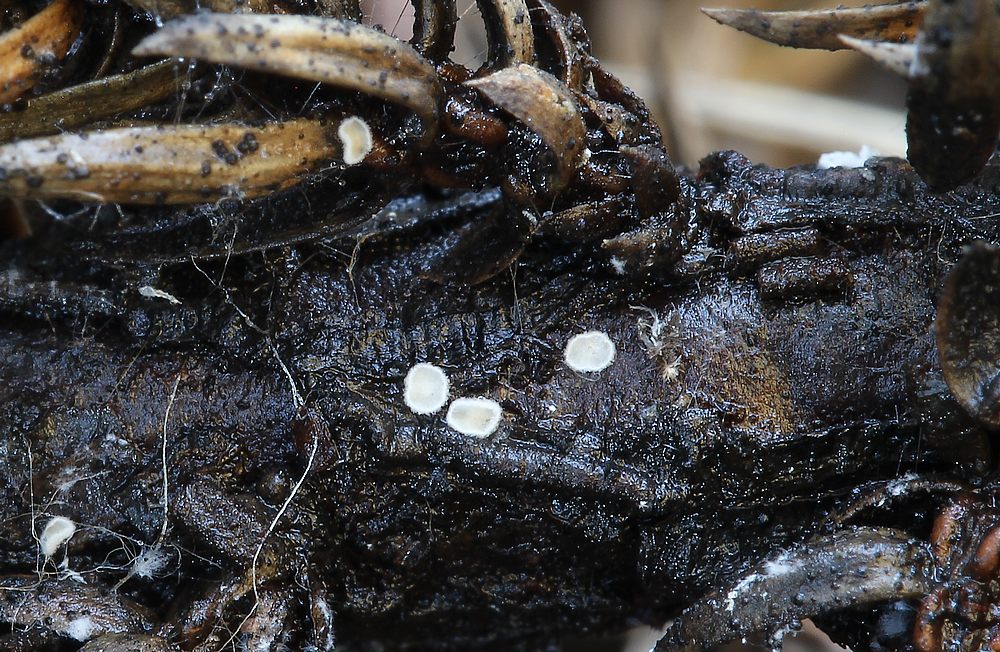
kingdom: Fungi
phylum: Basidiomycota
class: Agaricomycetes
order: Agaricales
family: Crepidotaceae
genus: Pellidiscus
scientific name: Pellidiscus pallidus
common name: skålformet muslingesvamp
